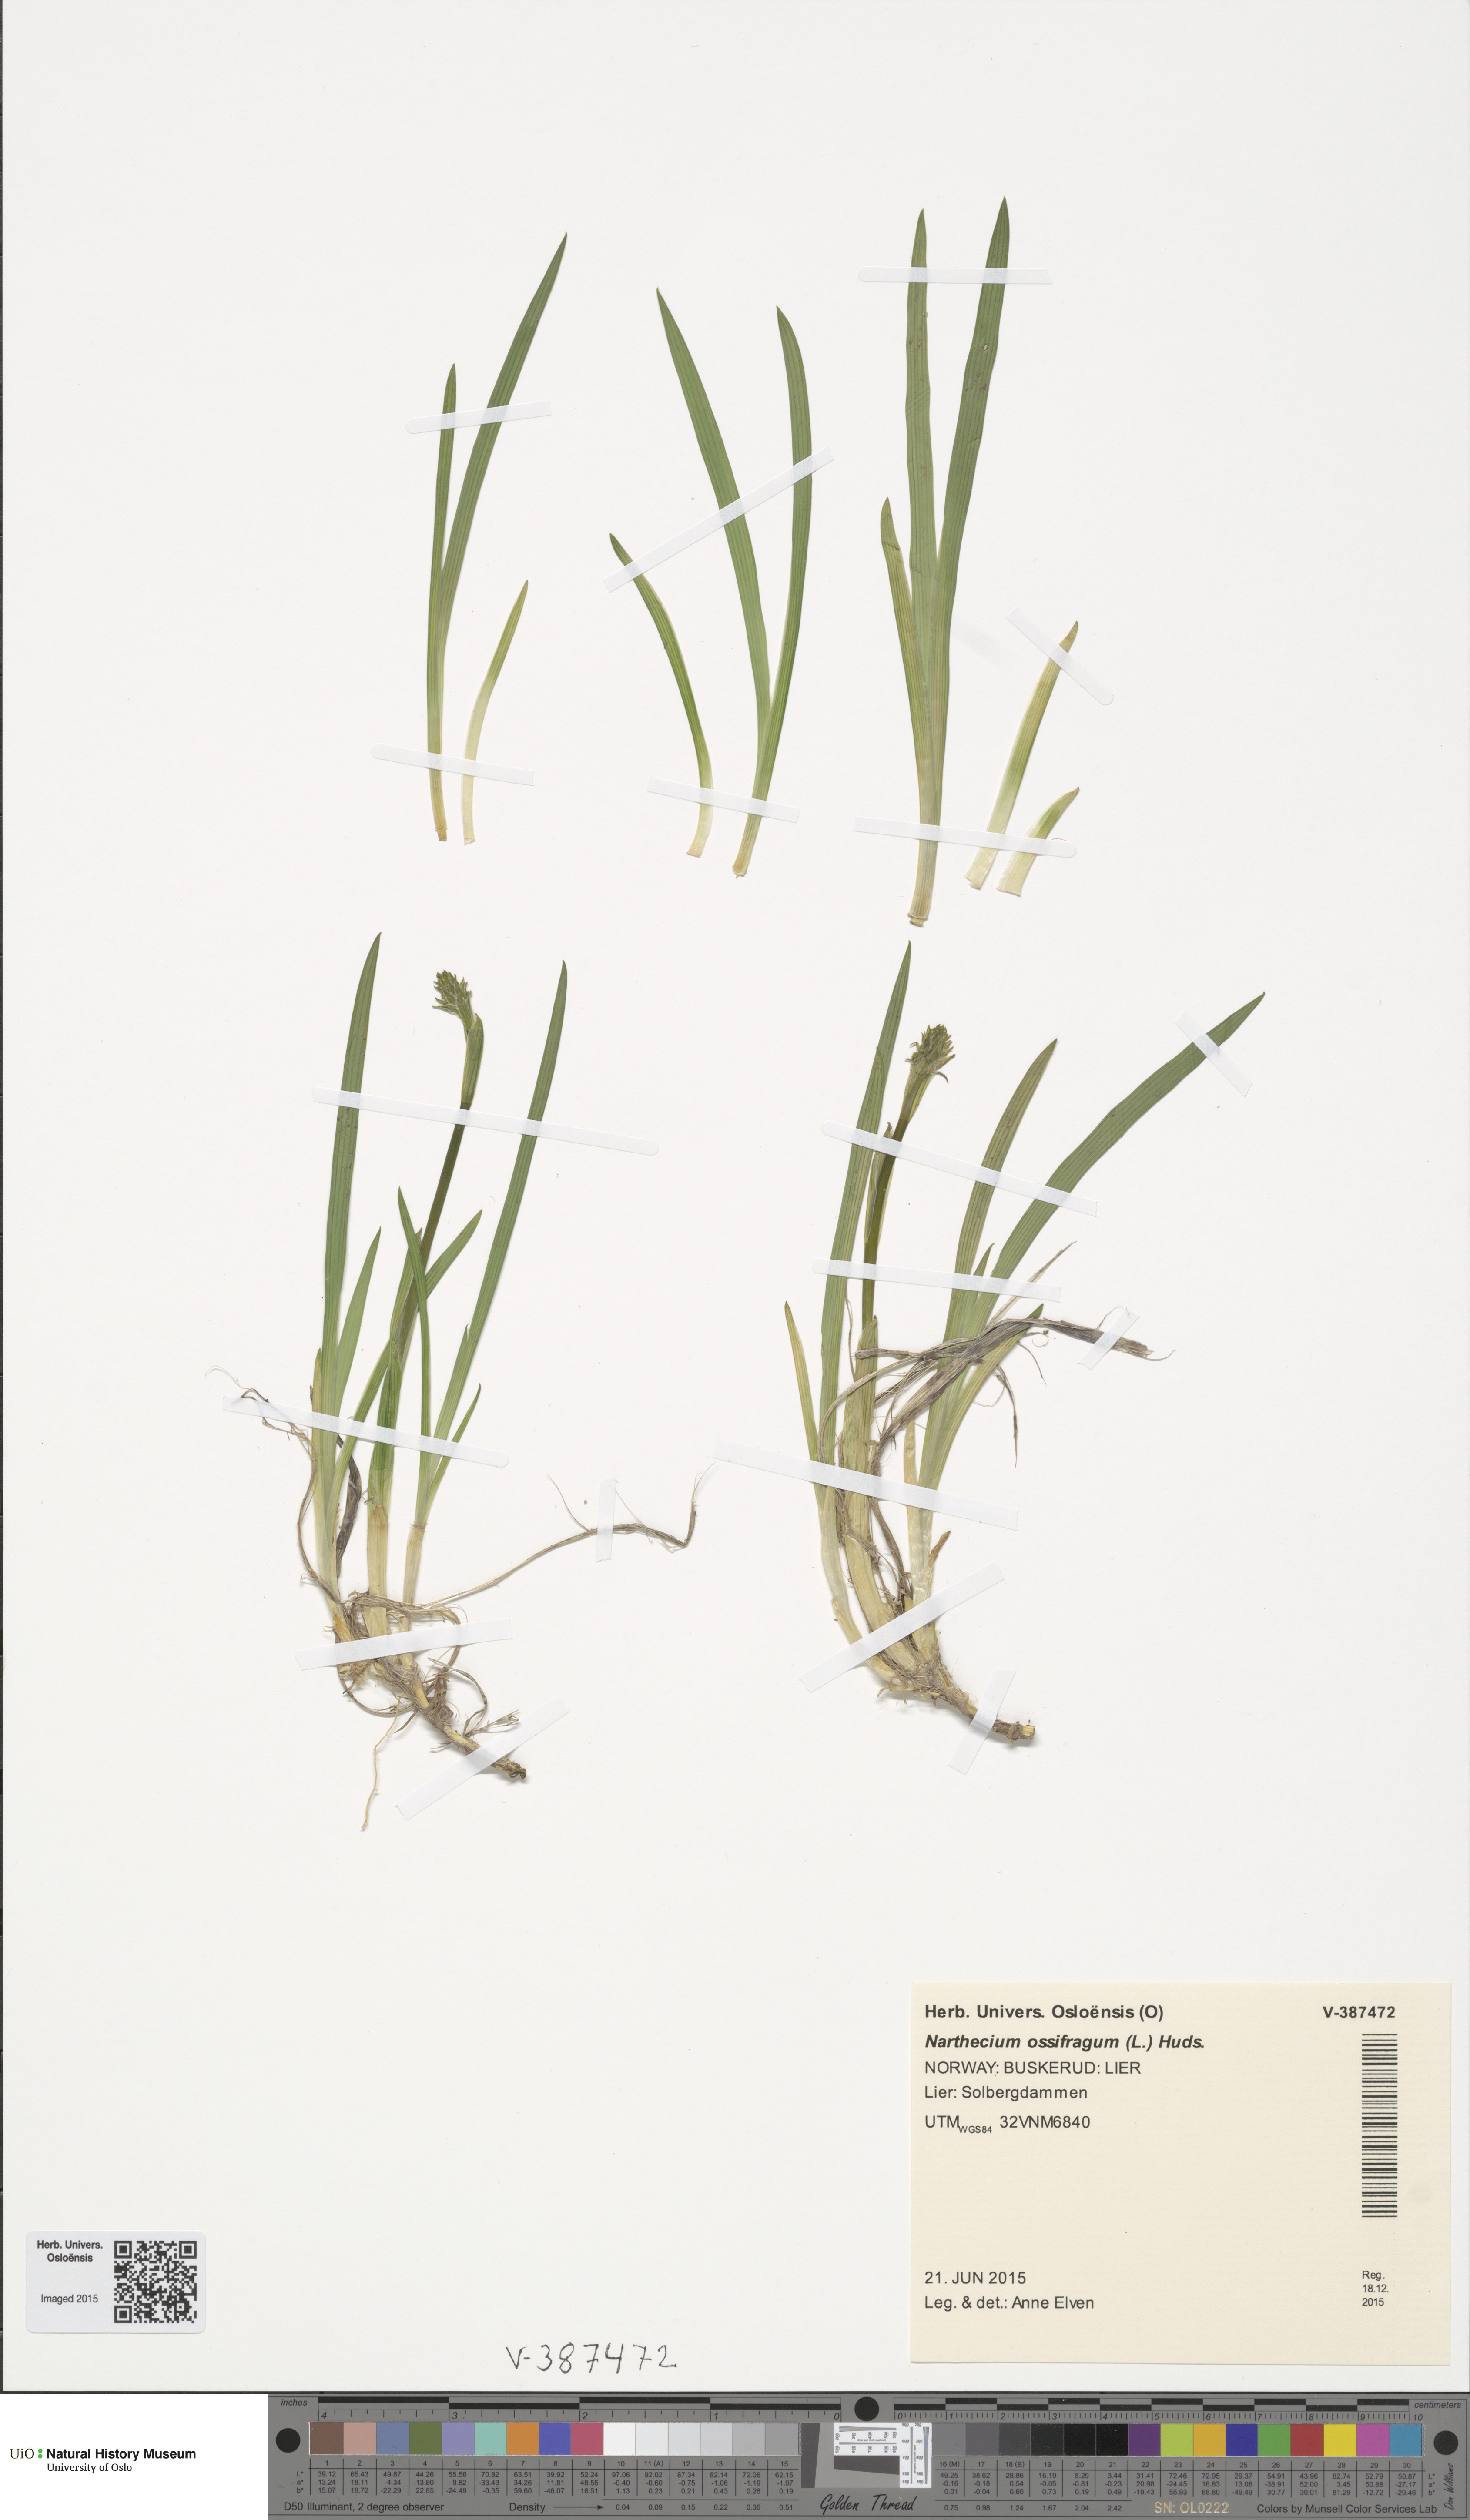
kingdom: Plantae
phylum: Tracheophyta
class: Liliopsida
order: Dioscoreales
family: Nartheciaceae
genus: Narthecium
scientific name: Narthecium ossifragum
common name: Bog asphodel
